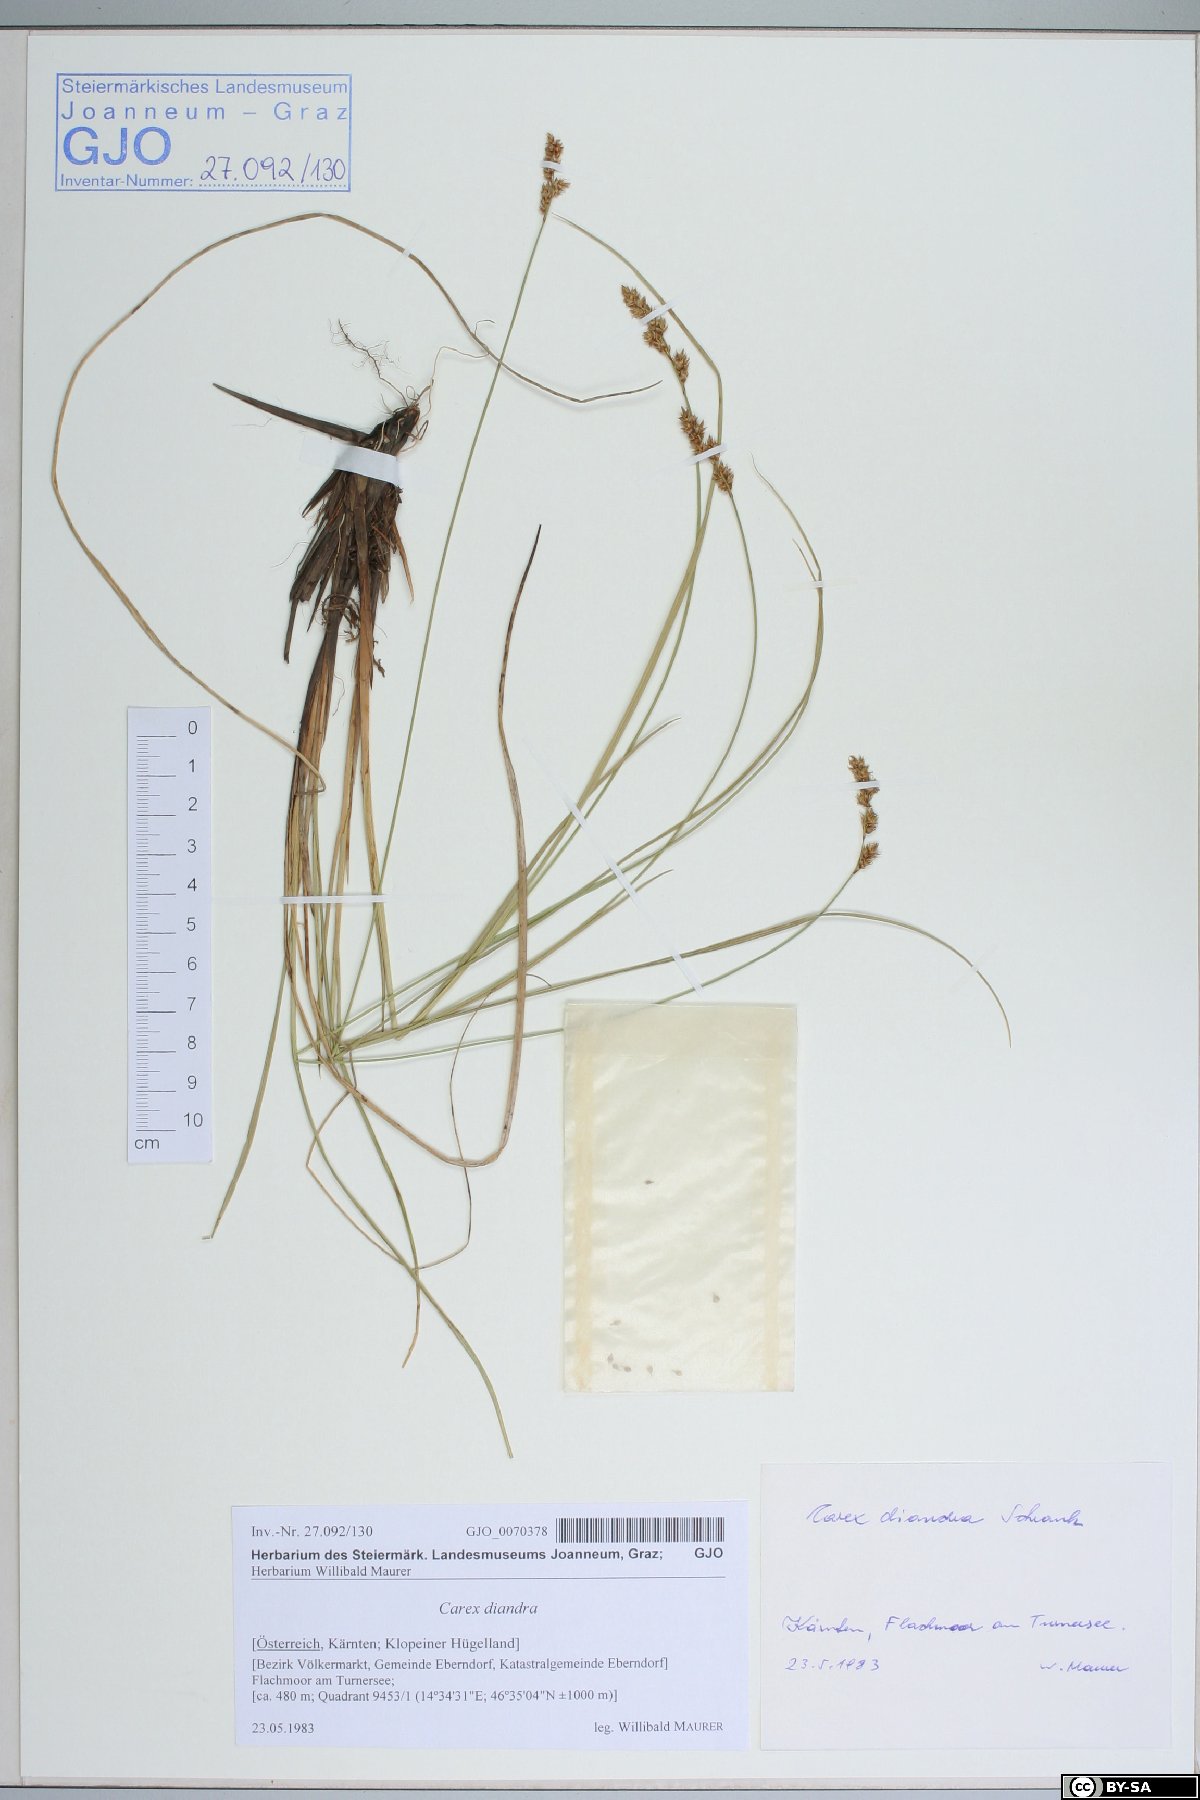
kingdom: Plantae
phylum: Tracheophyta
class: Liliopsida
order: Poales
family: Cyperaceae
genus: Carex
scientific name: Carex diandra
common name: Lesser tussock-sedge
